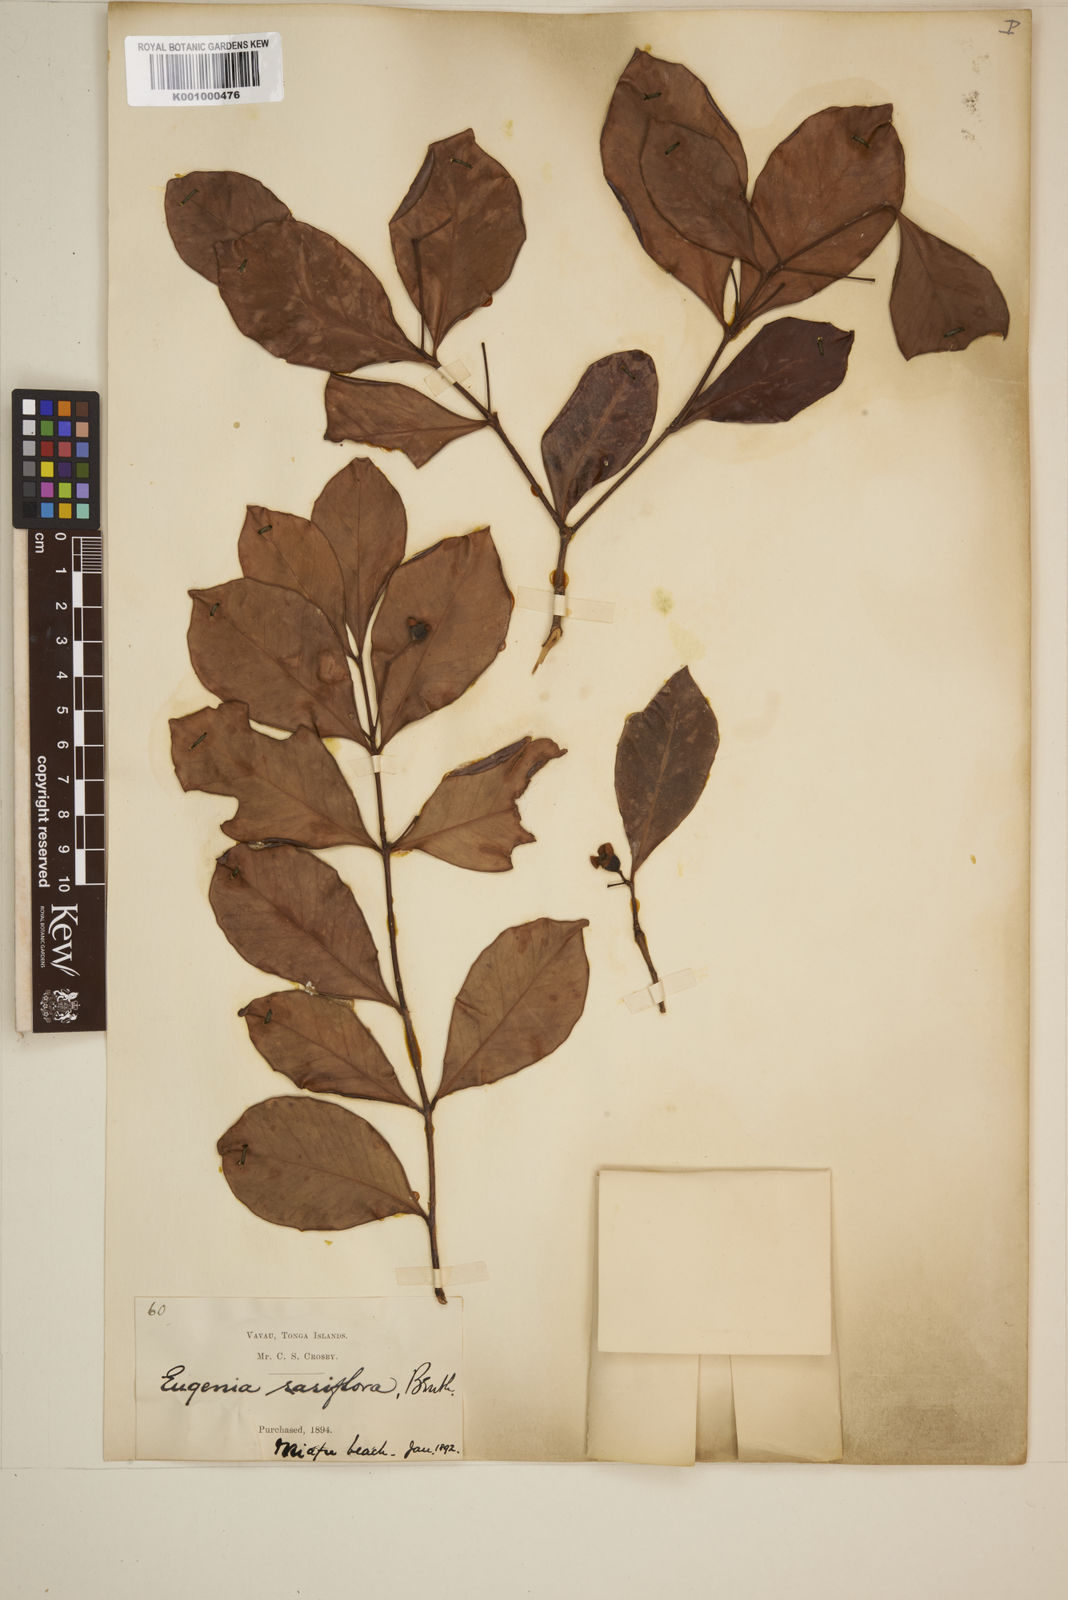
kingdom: Plantae
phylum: Tracheophyta
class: Magnoliopsida
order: Myrtales
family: Myrtaceae
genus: Eugenia
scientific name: Eugenia reinwardtiana
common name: Cedar bay-cherry
